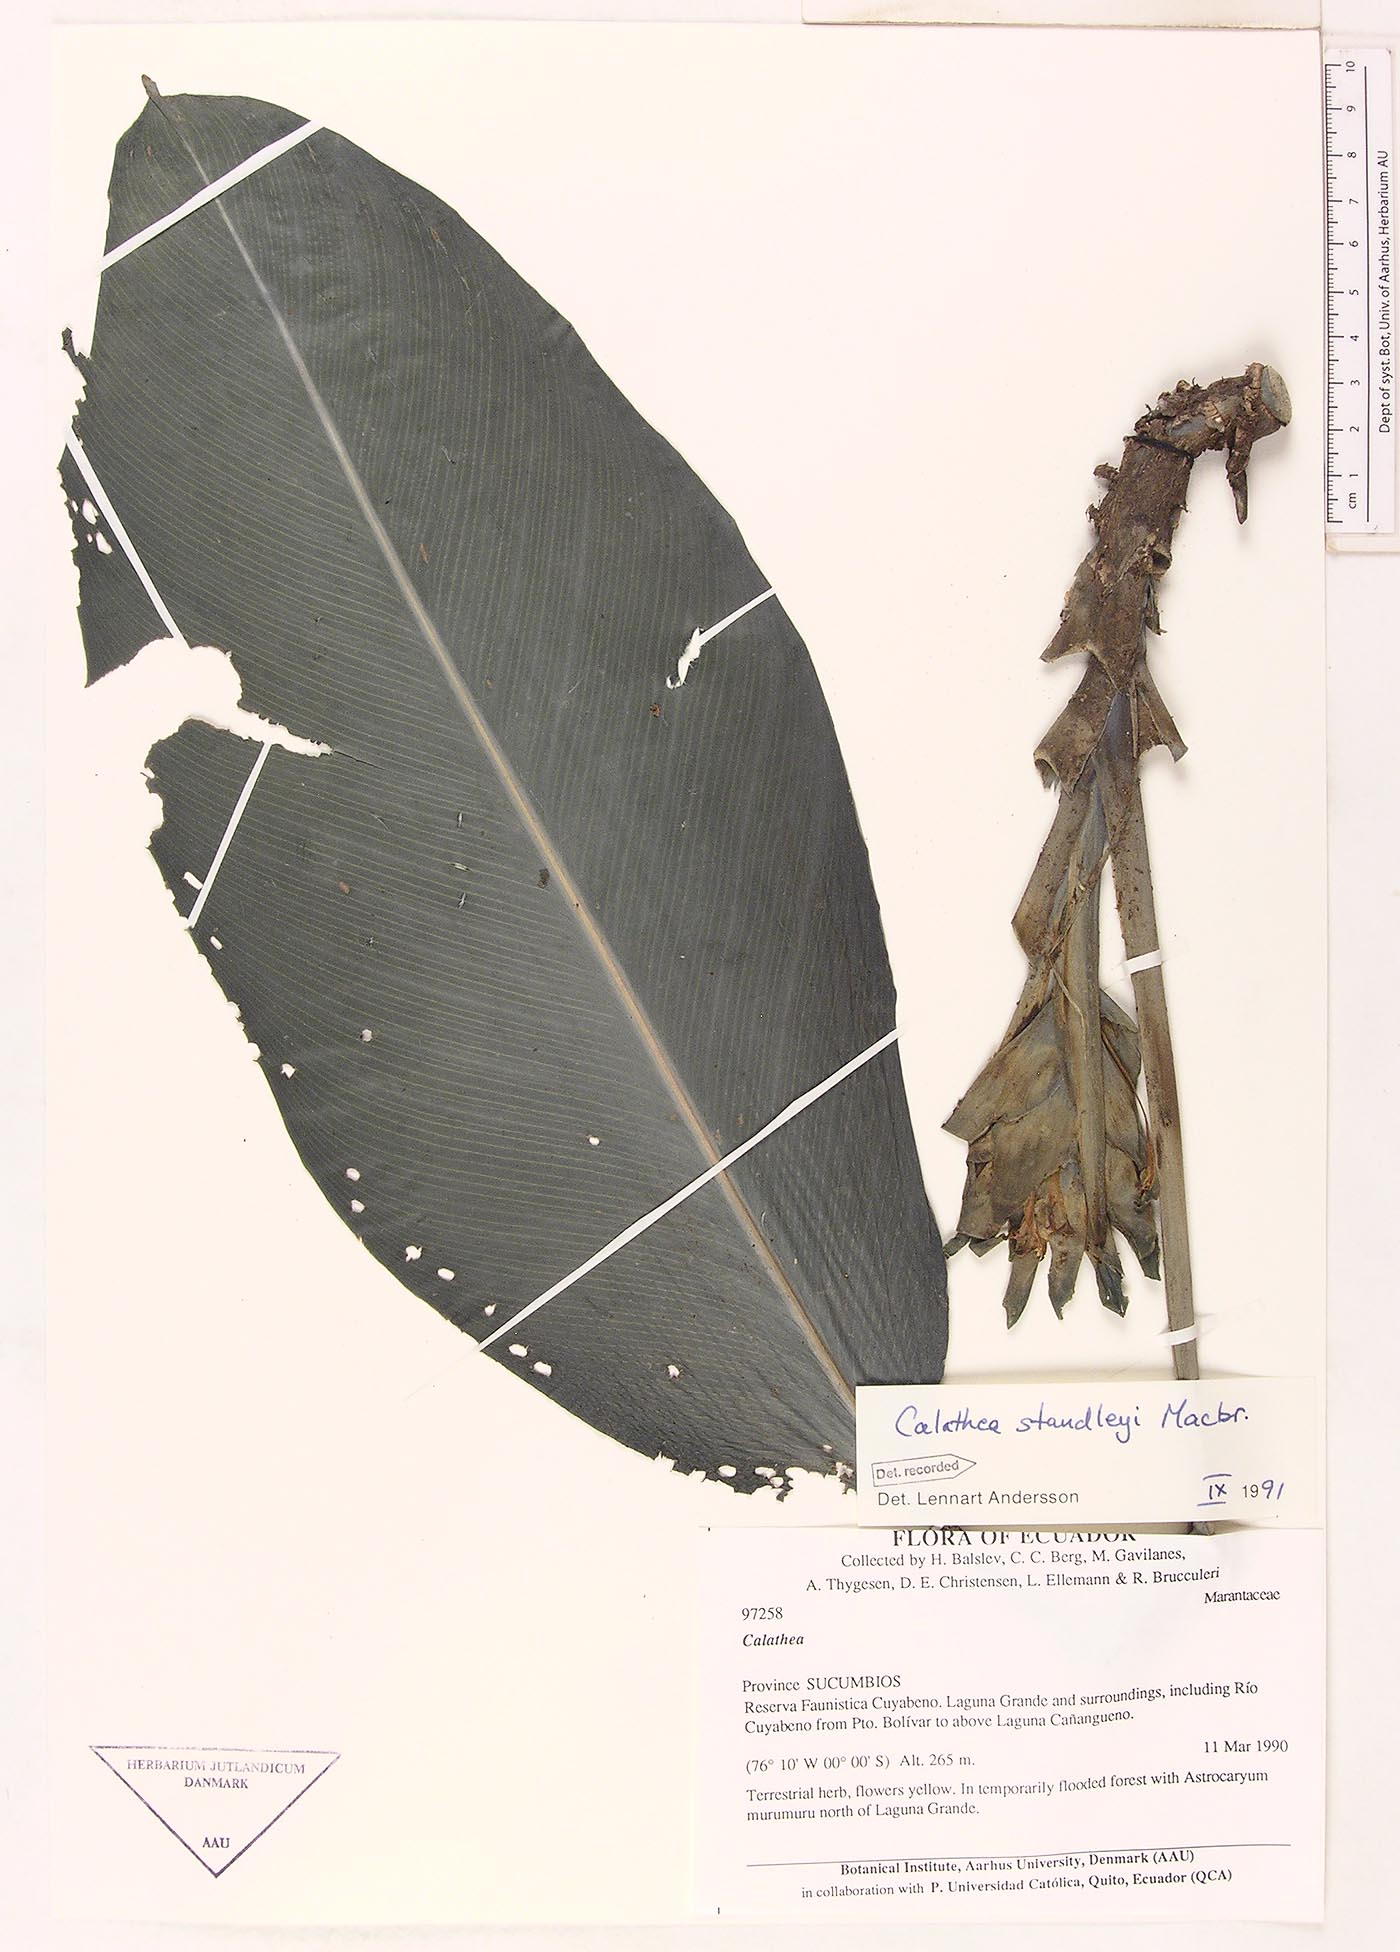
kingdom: Plantae
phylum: Tracheophyta
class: Liliopsida
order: Zingiberales
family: Marantaceae
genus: Goeppertia
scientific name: Goeppertia standleyi
